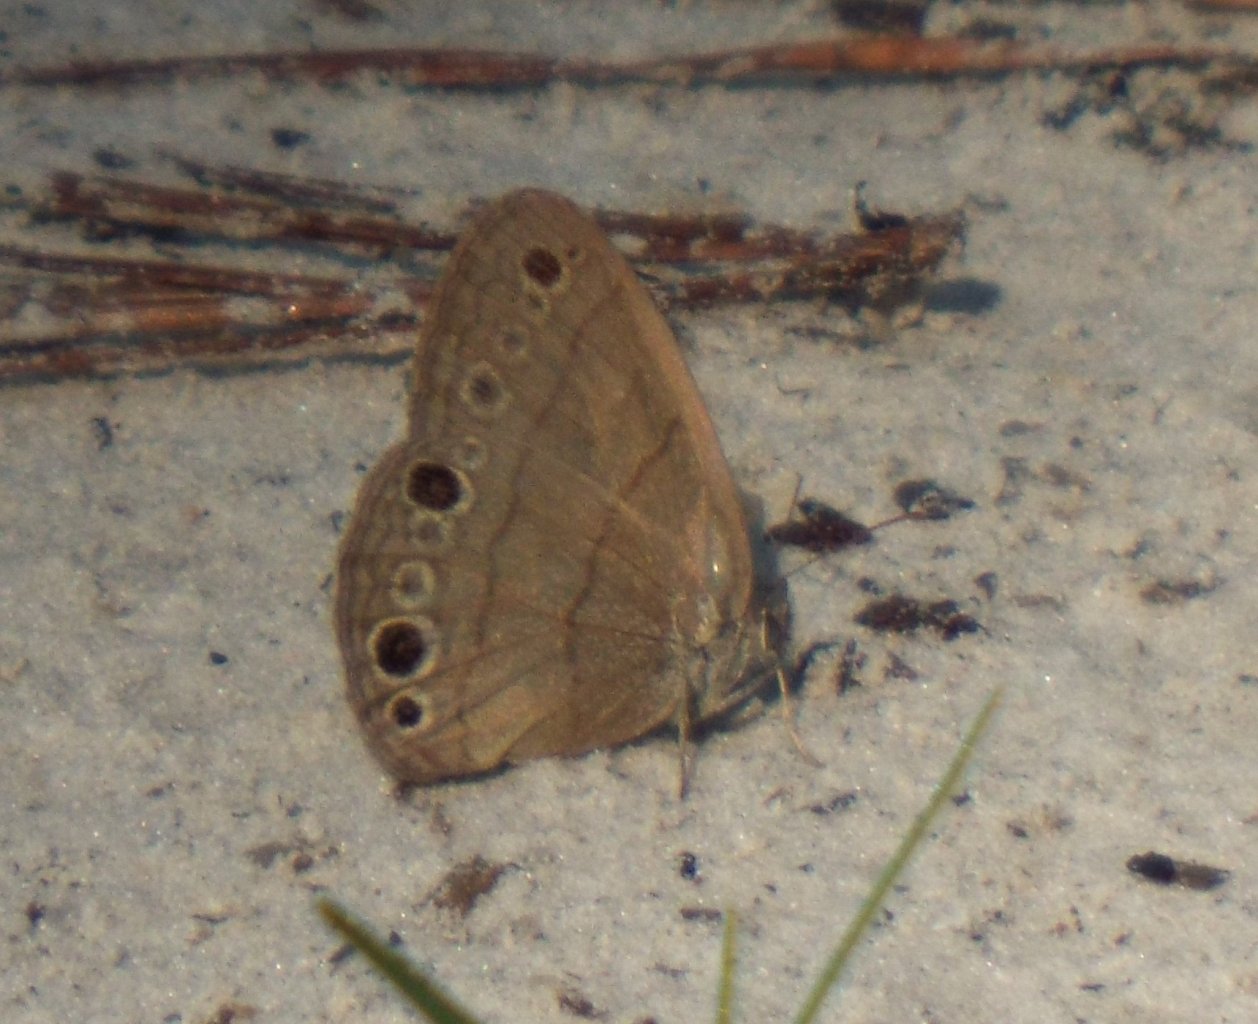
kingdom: Animalia
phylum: Arthropoda
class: Insecta
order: Lepidoptera
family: Nymphalidae
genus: Hermeuptychia
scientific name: Hermeuptychia hermes
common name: Carolina Satyr
